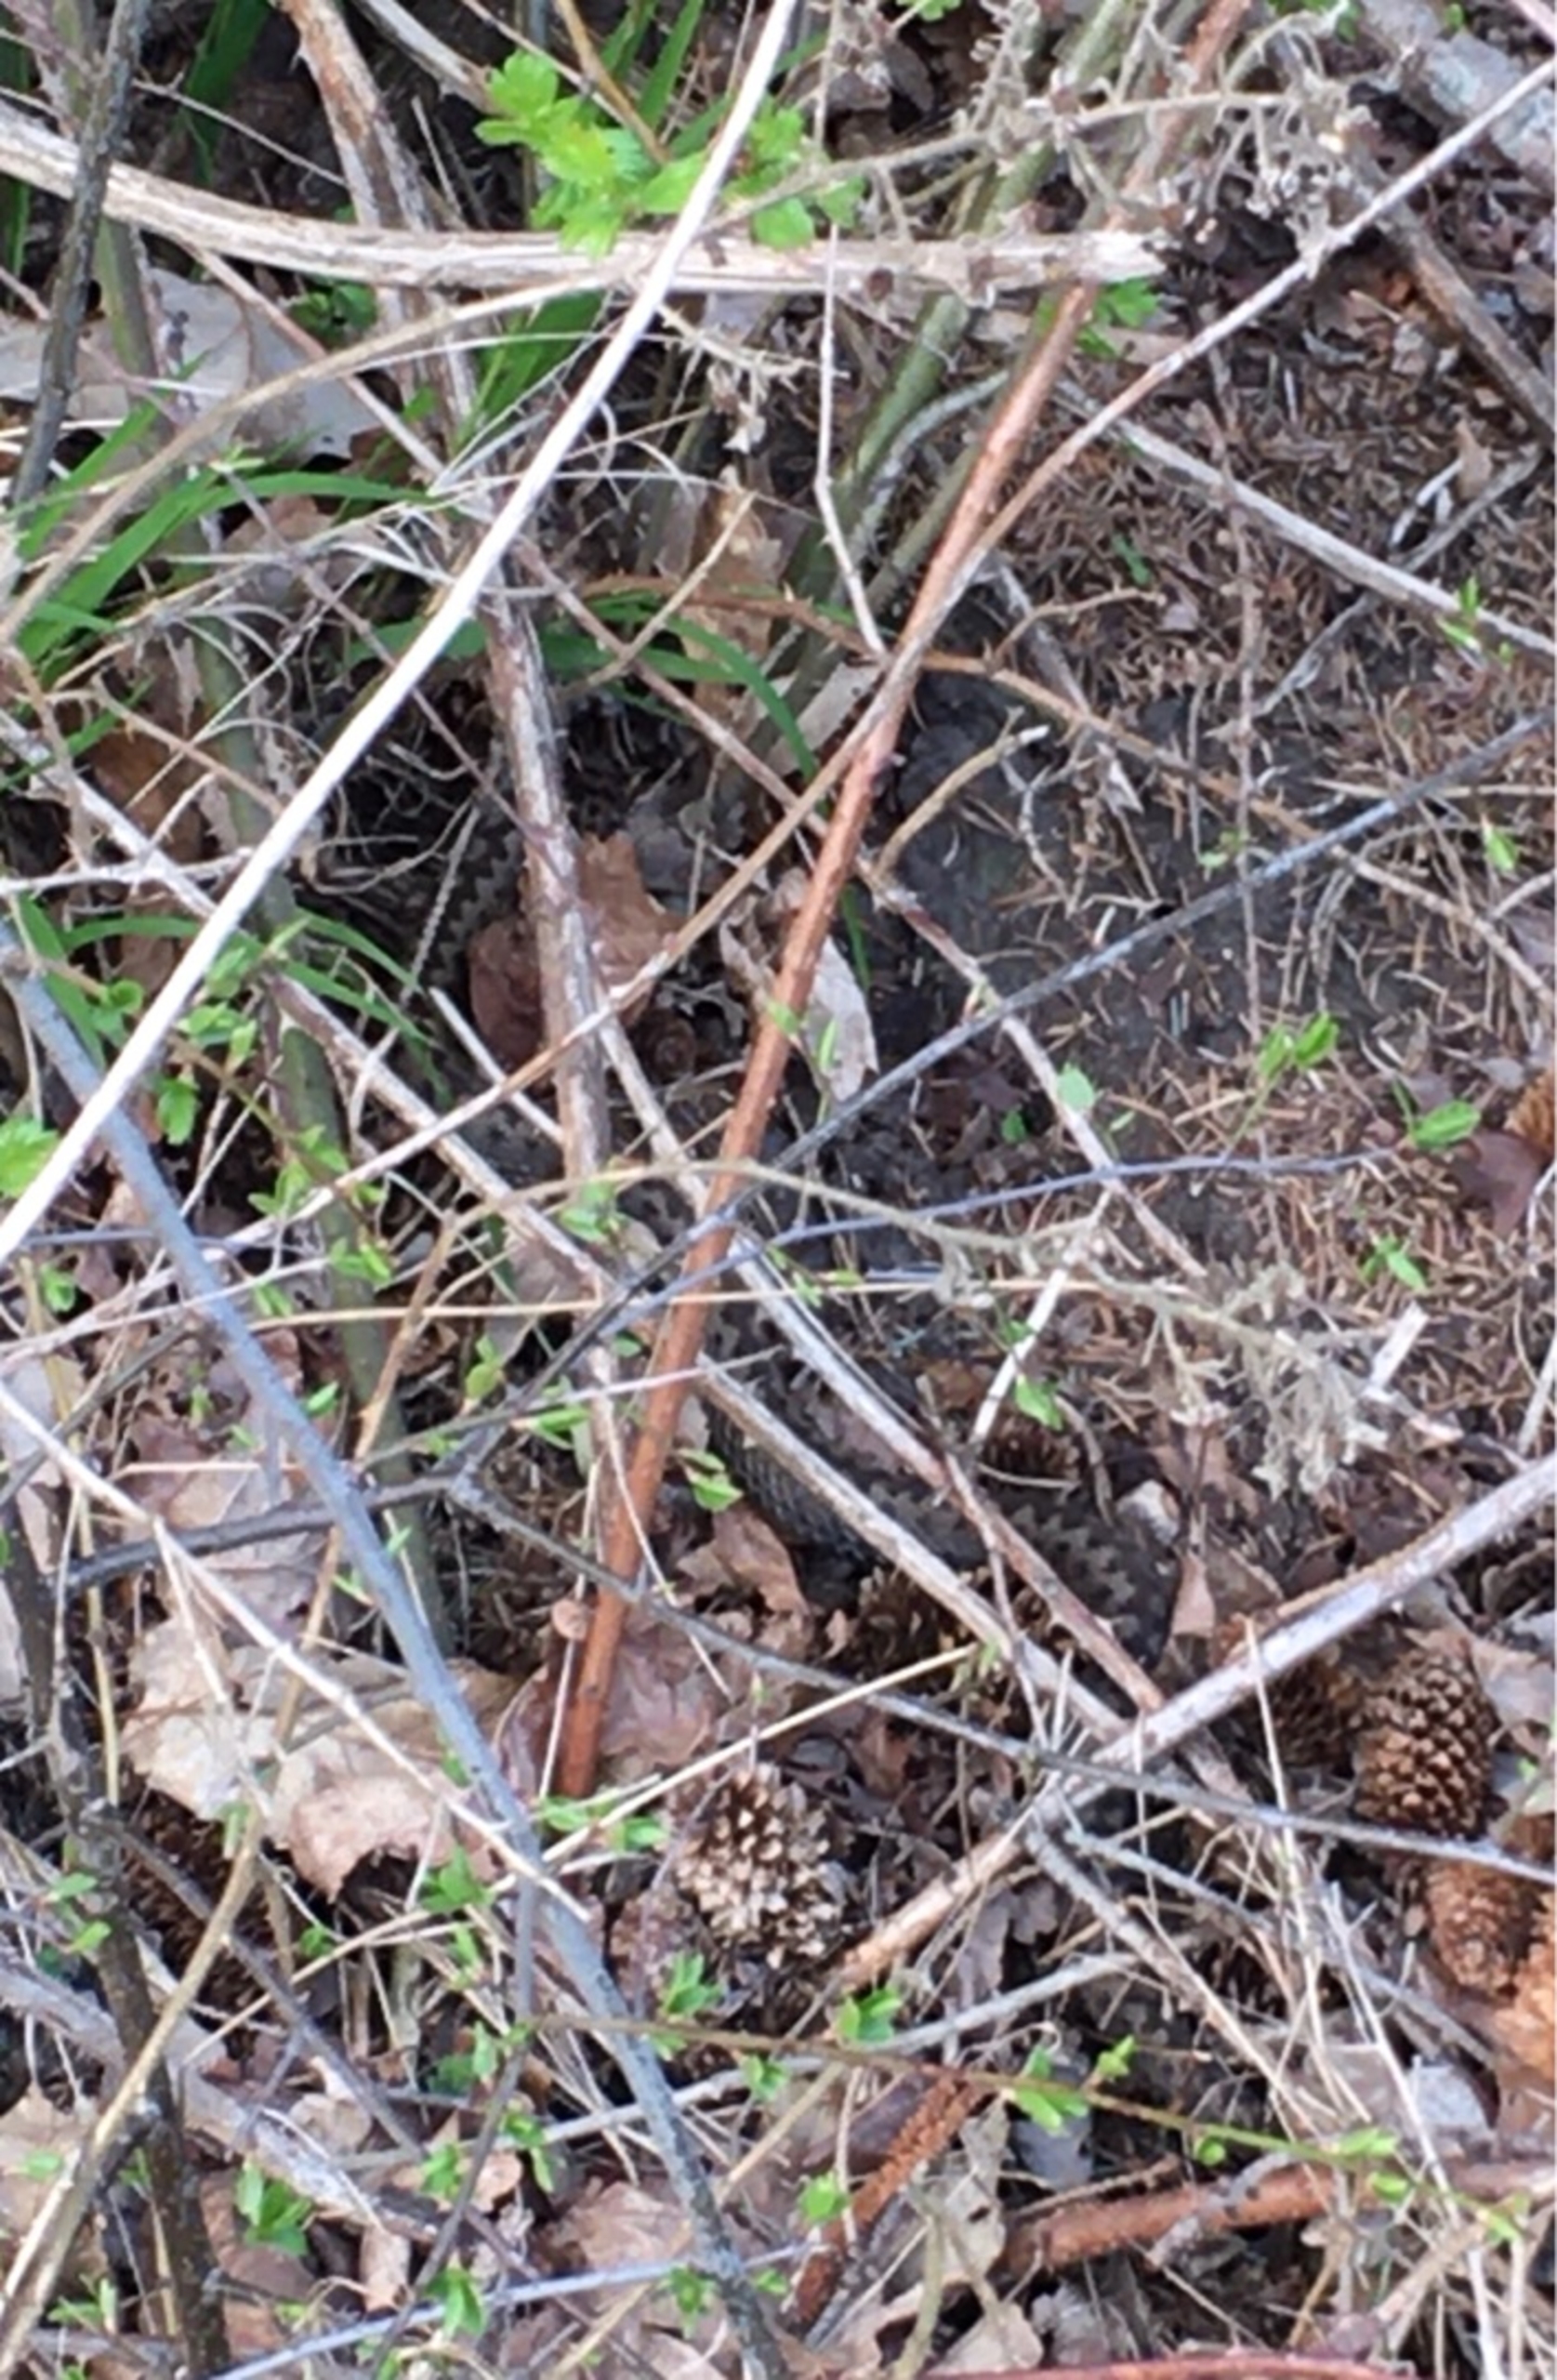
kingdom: Animalia
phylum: Chordata
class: Squamata
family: Viperidae
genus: Vipera
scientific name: Vipera berus
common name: Hugorm
